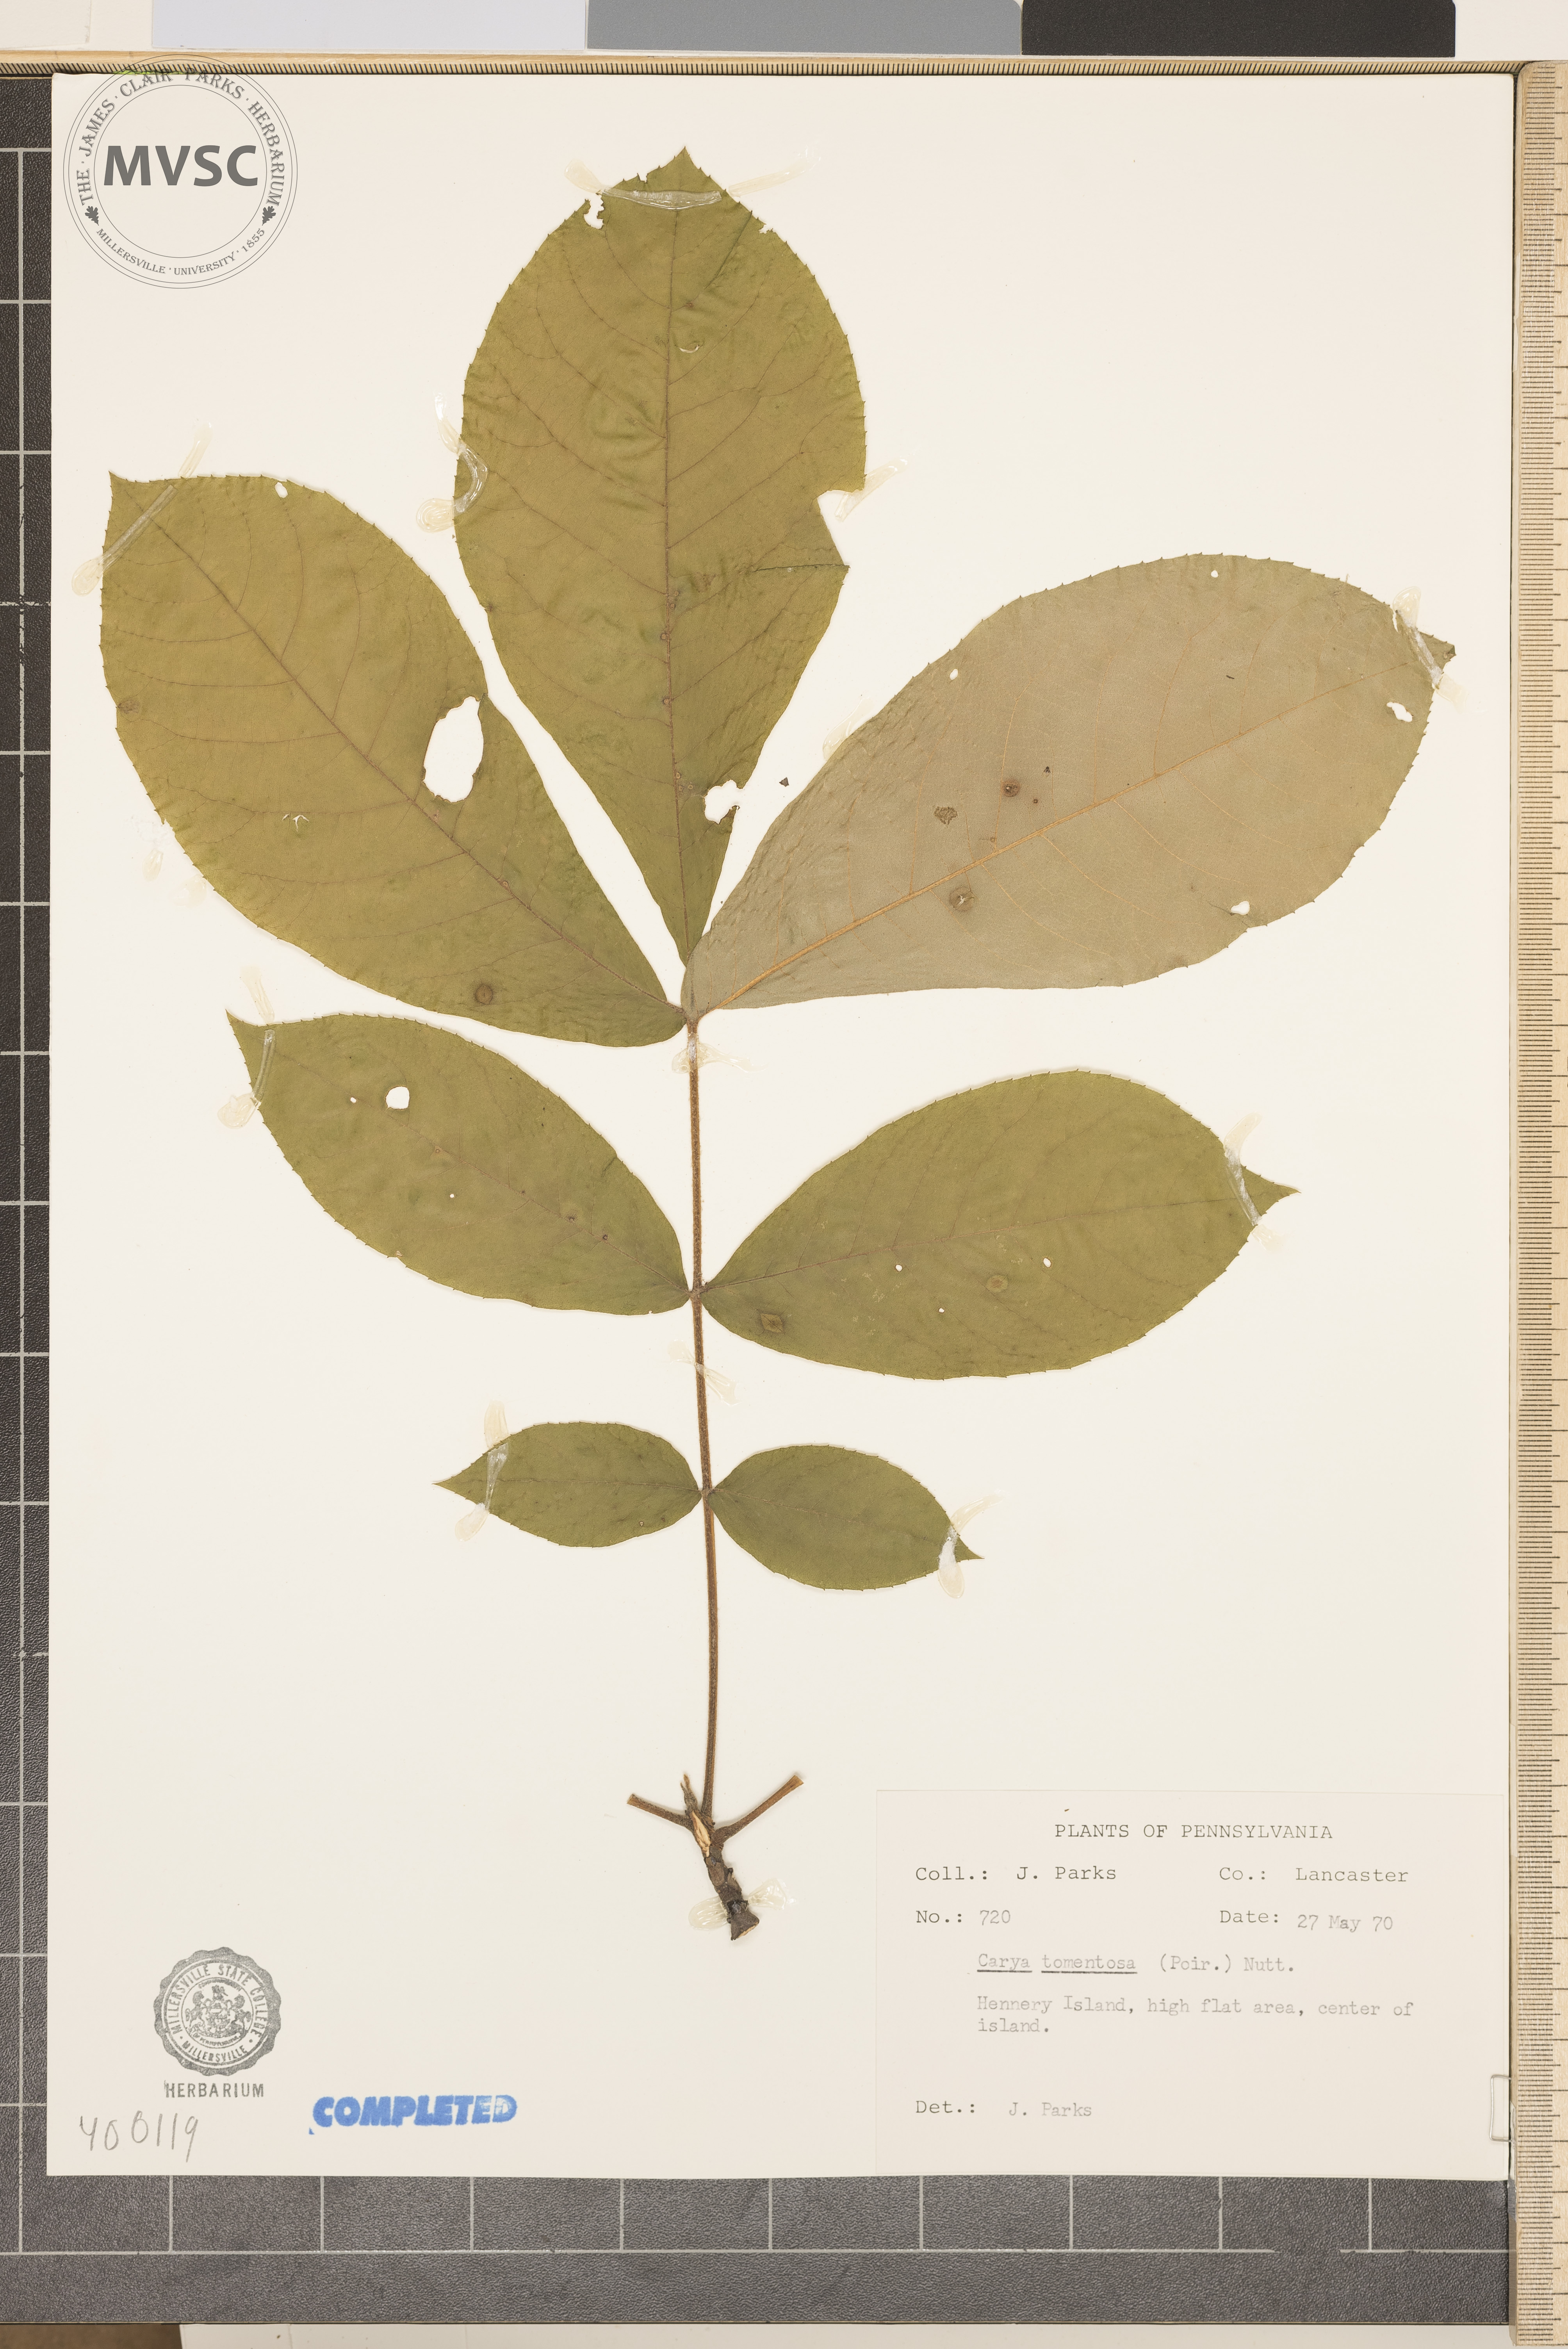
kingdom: Plantae
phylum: Tracheophyta
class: Magnoliopsida
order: Fagales
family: Juglandaceae
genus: Carya
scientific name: Carya alba
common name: mockernut hickory
